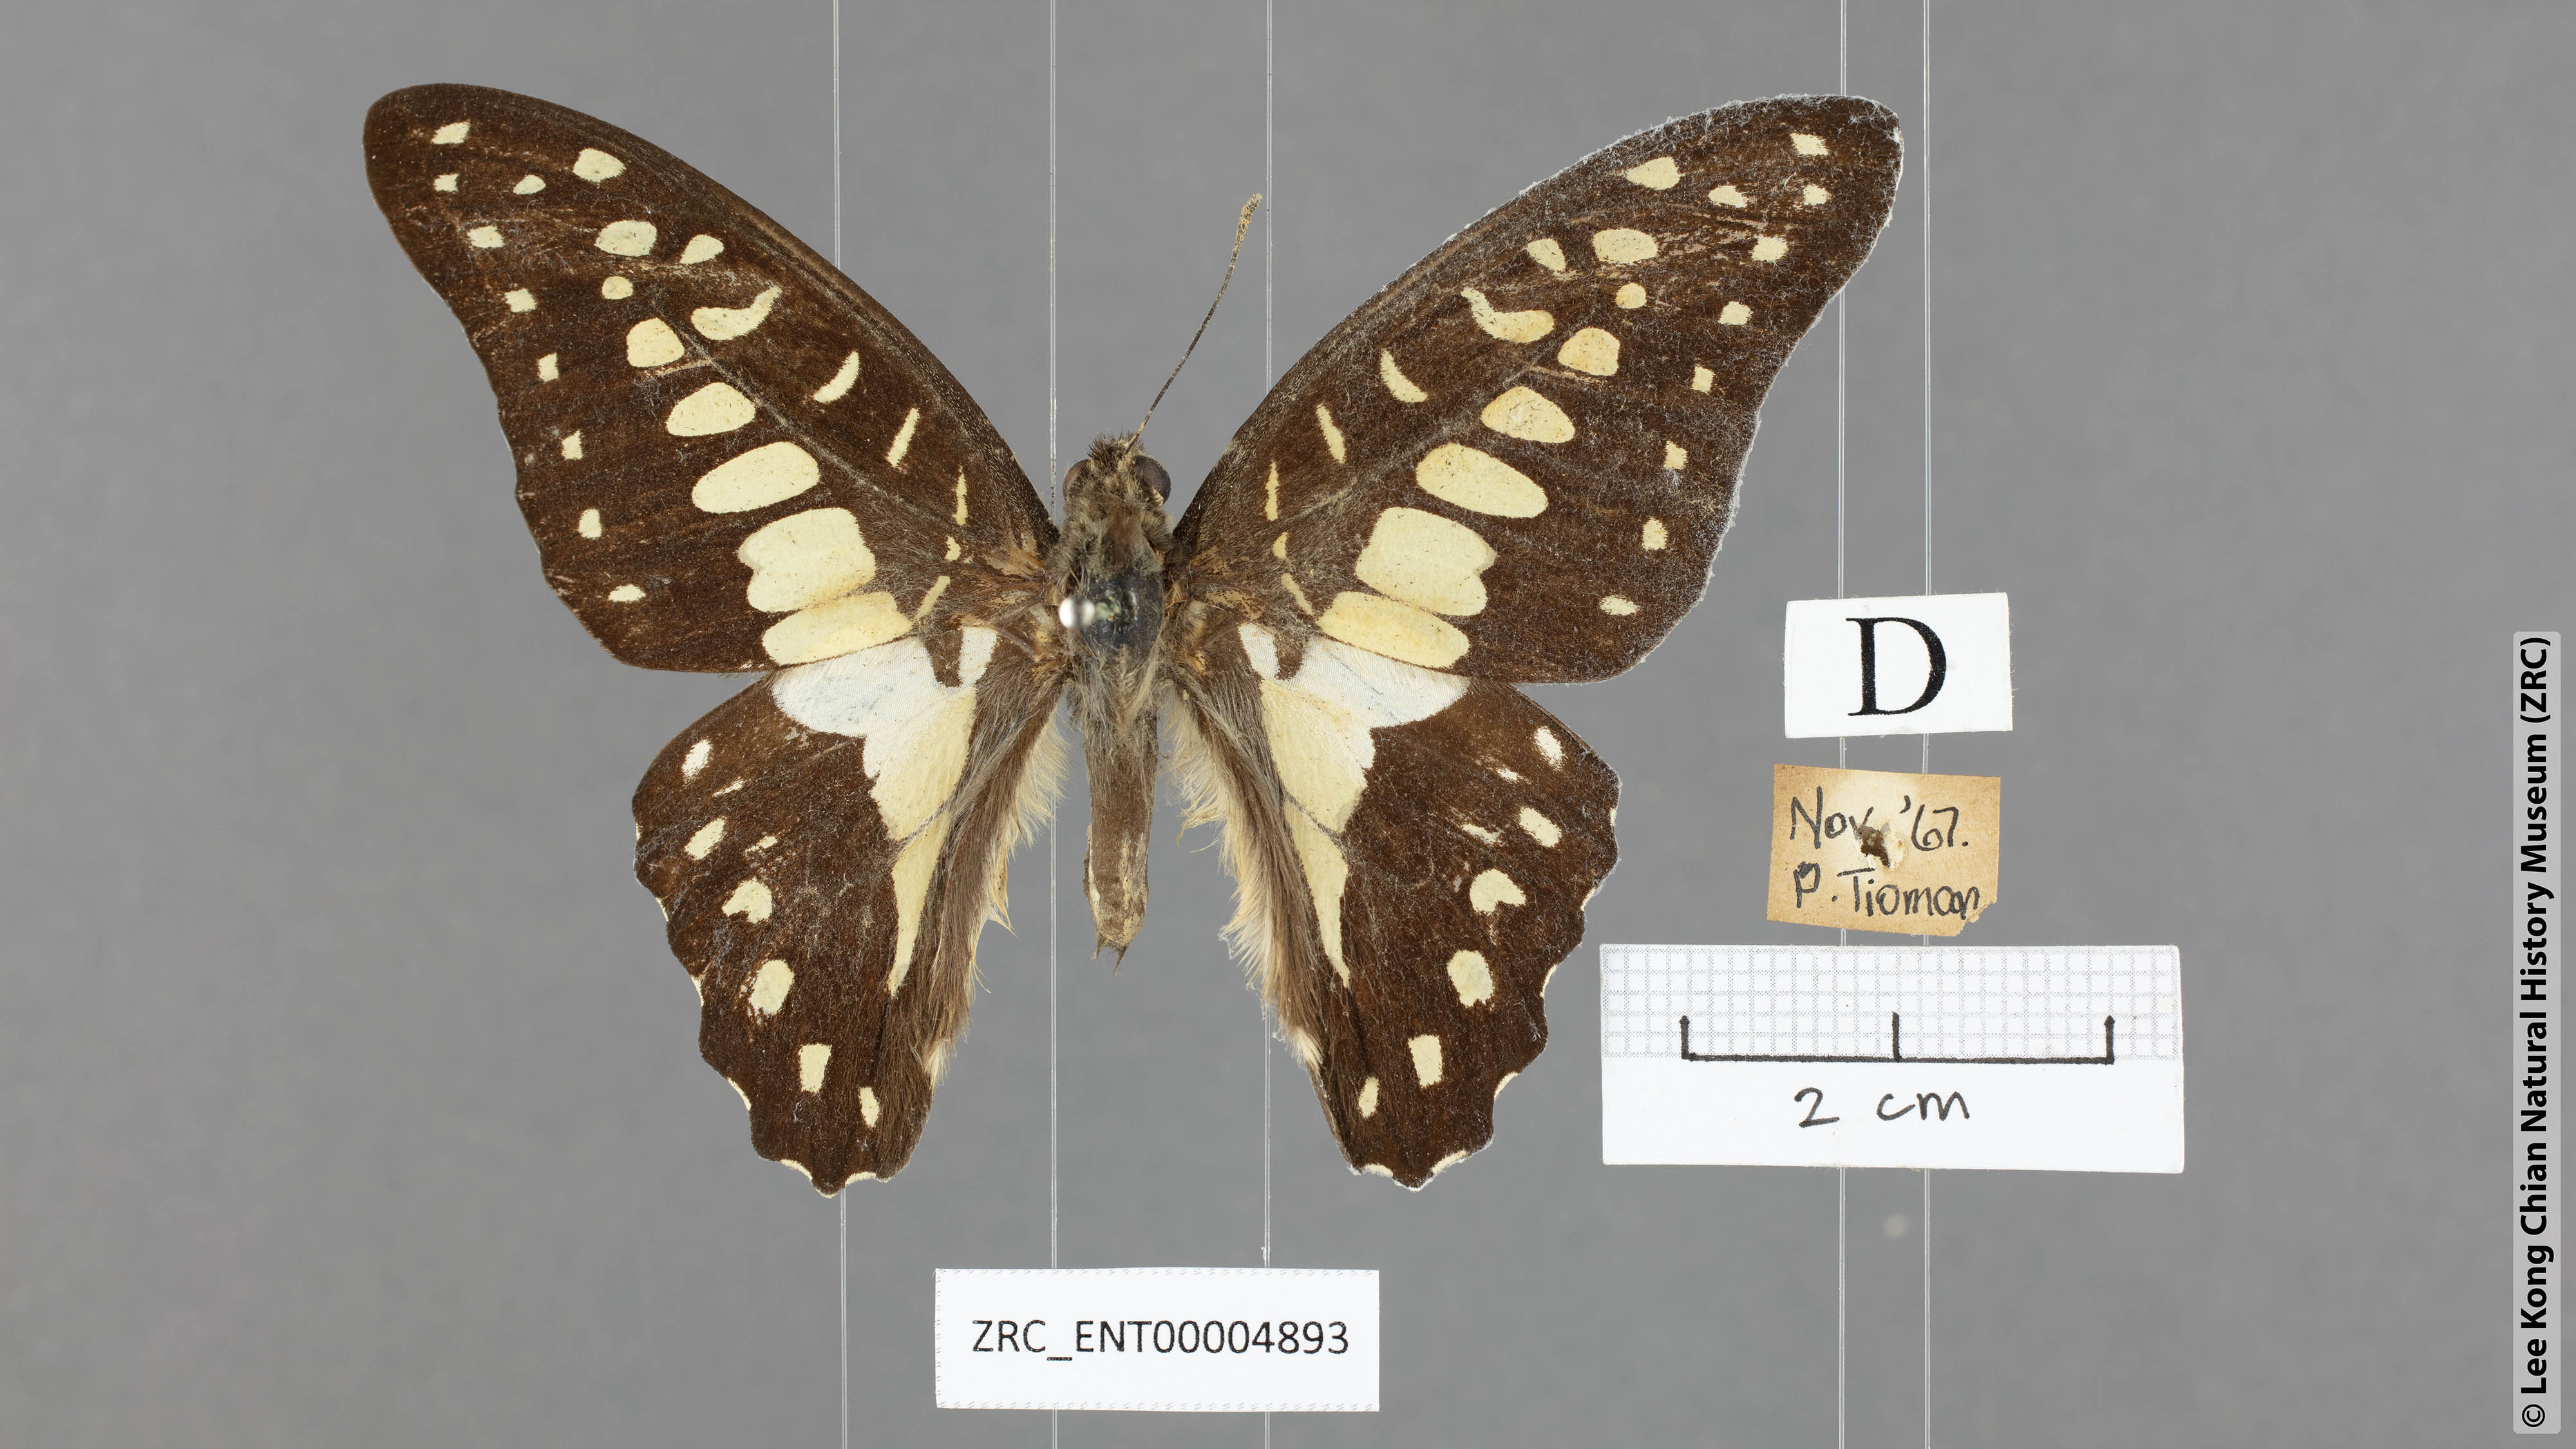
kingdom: Animalia
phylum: Arthropoda
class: Insecta
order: Lepidoptera
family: Papilionidae
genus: Graphium
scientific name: Graphium doson
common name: Common jay
